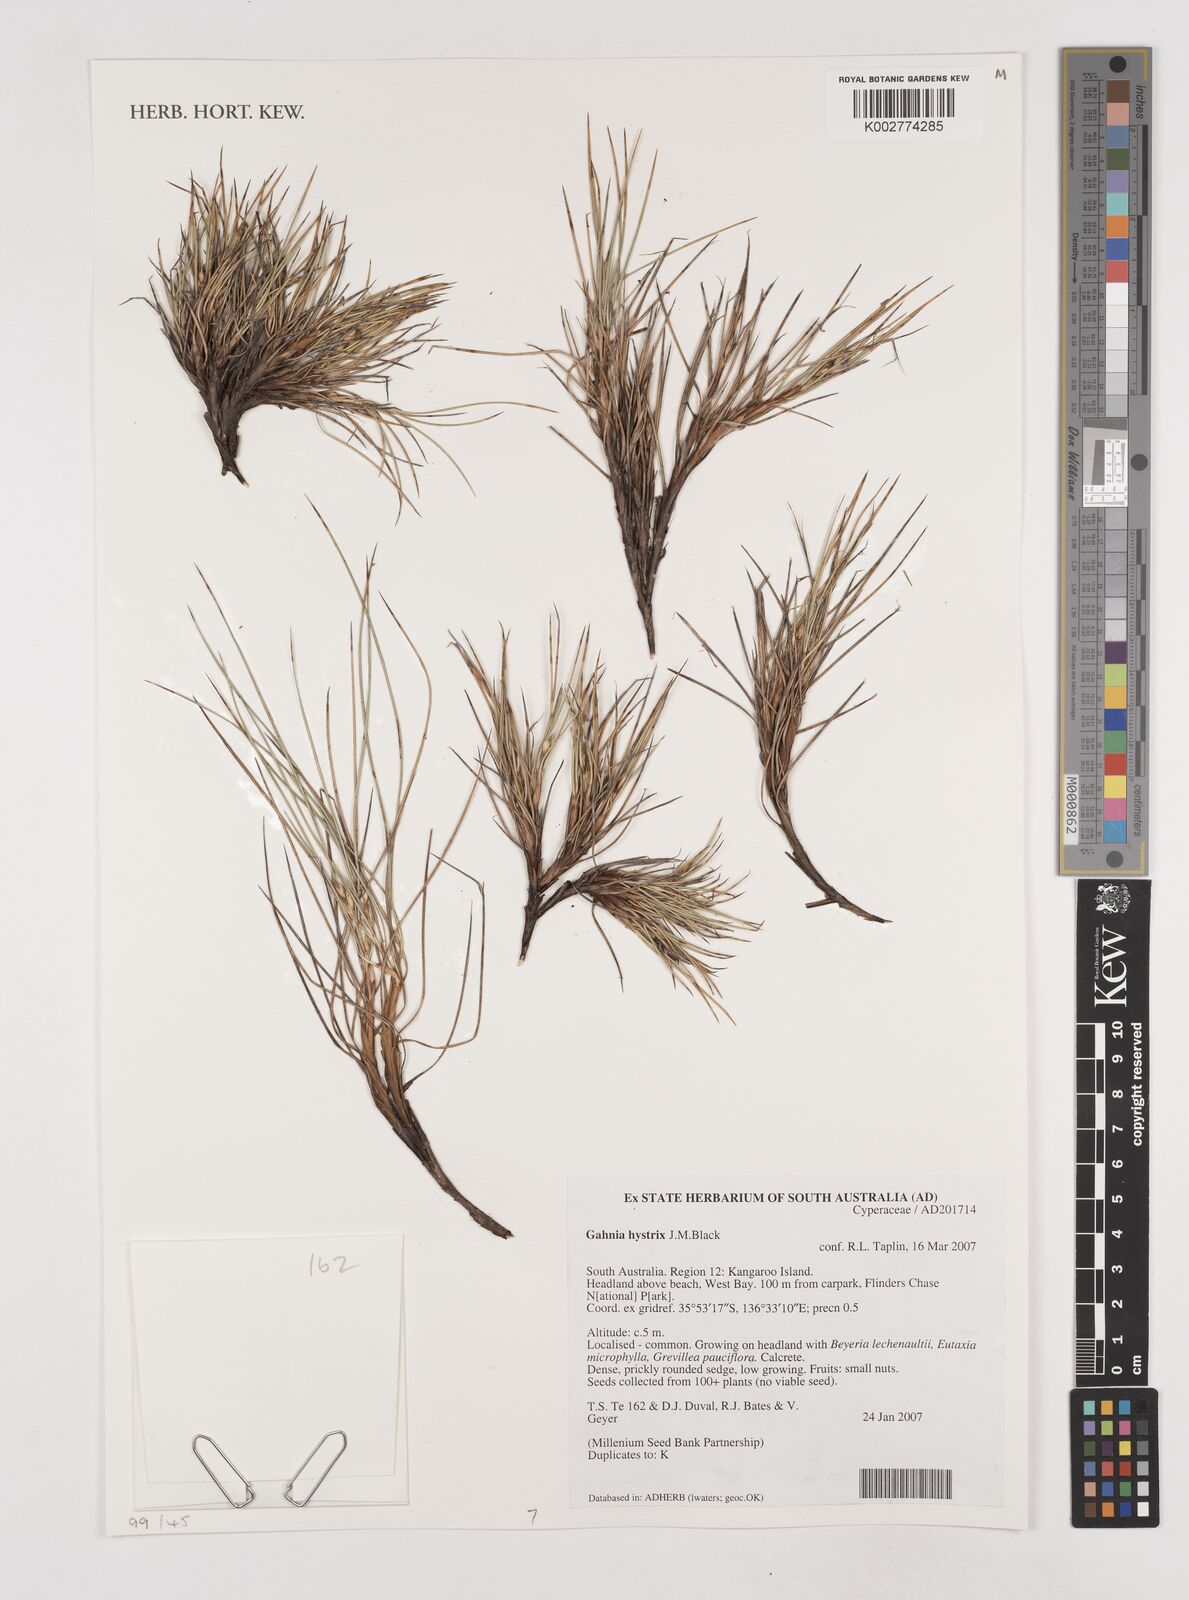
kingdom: Plantae
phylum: Tracheophyta
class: Liliopsida
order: Poales
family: Cyperaceae
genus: Gahnia
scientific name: Gahnia hystrix
